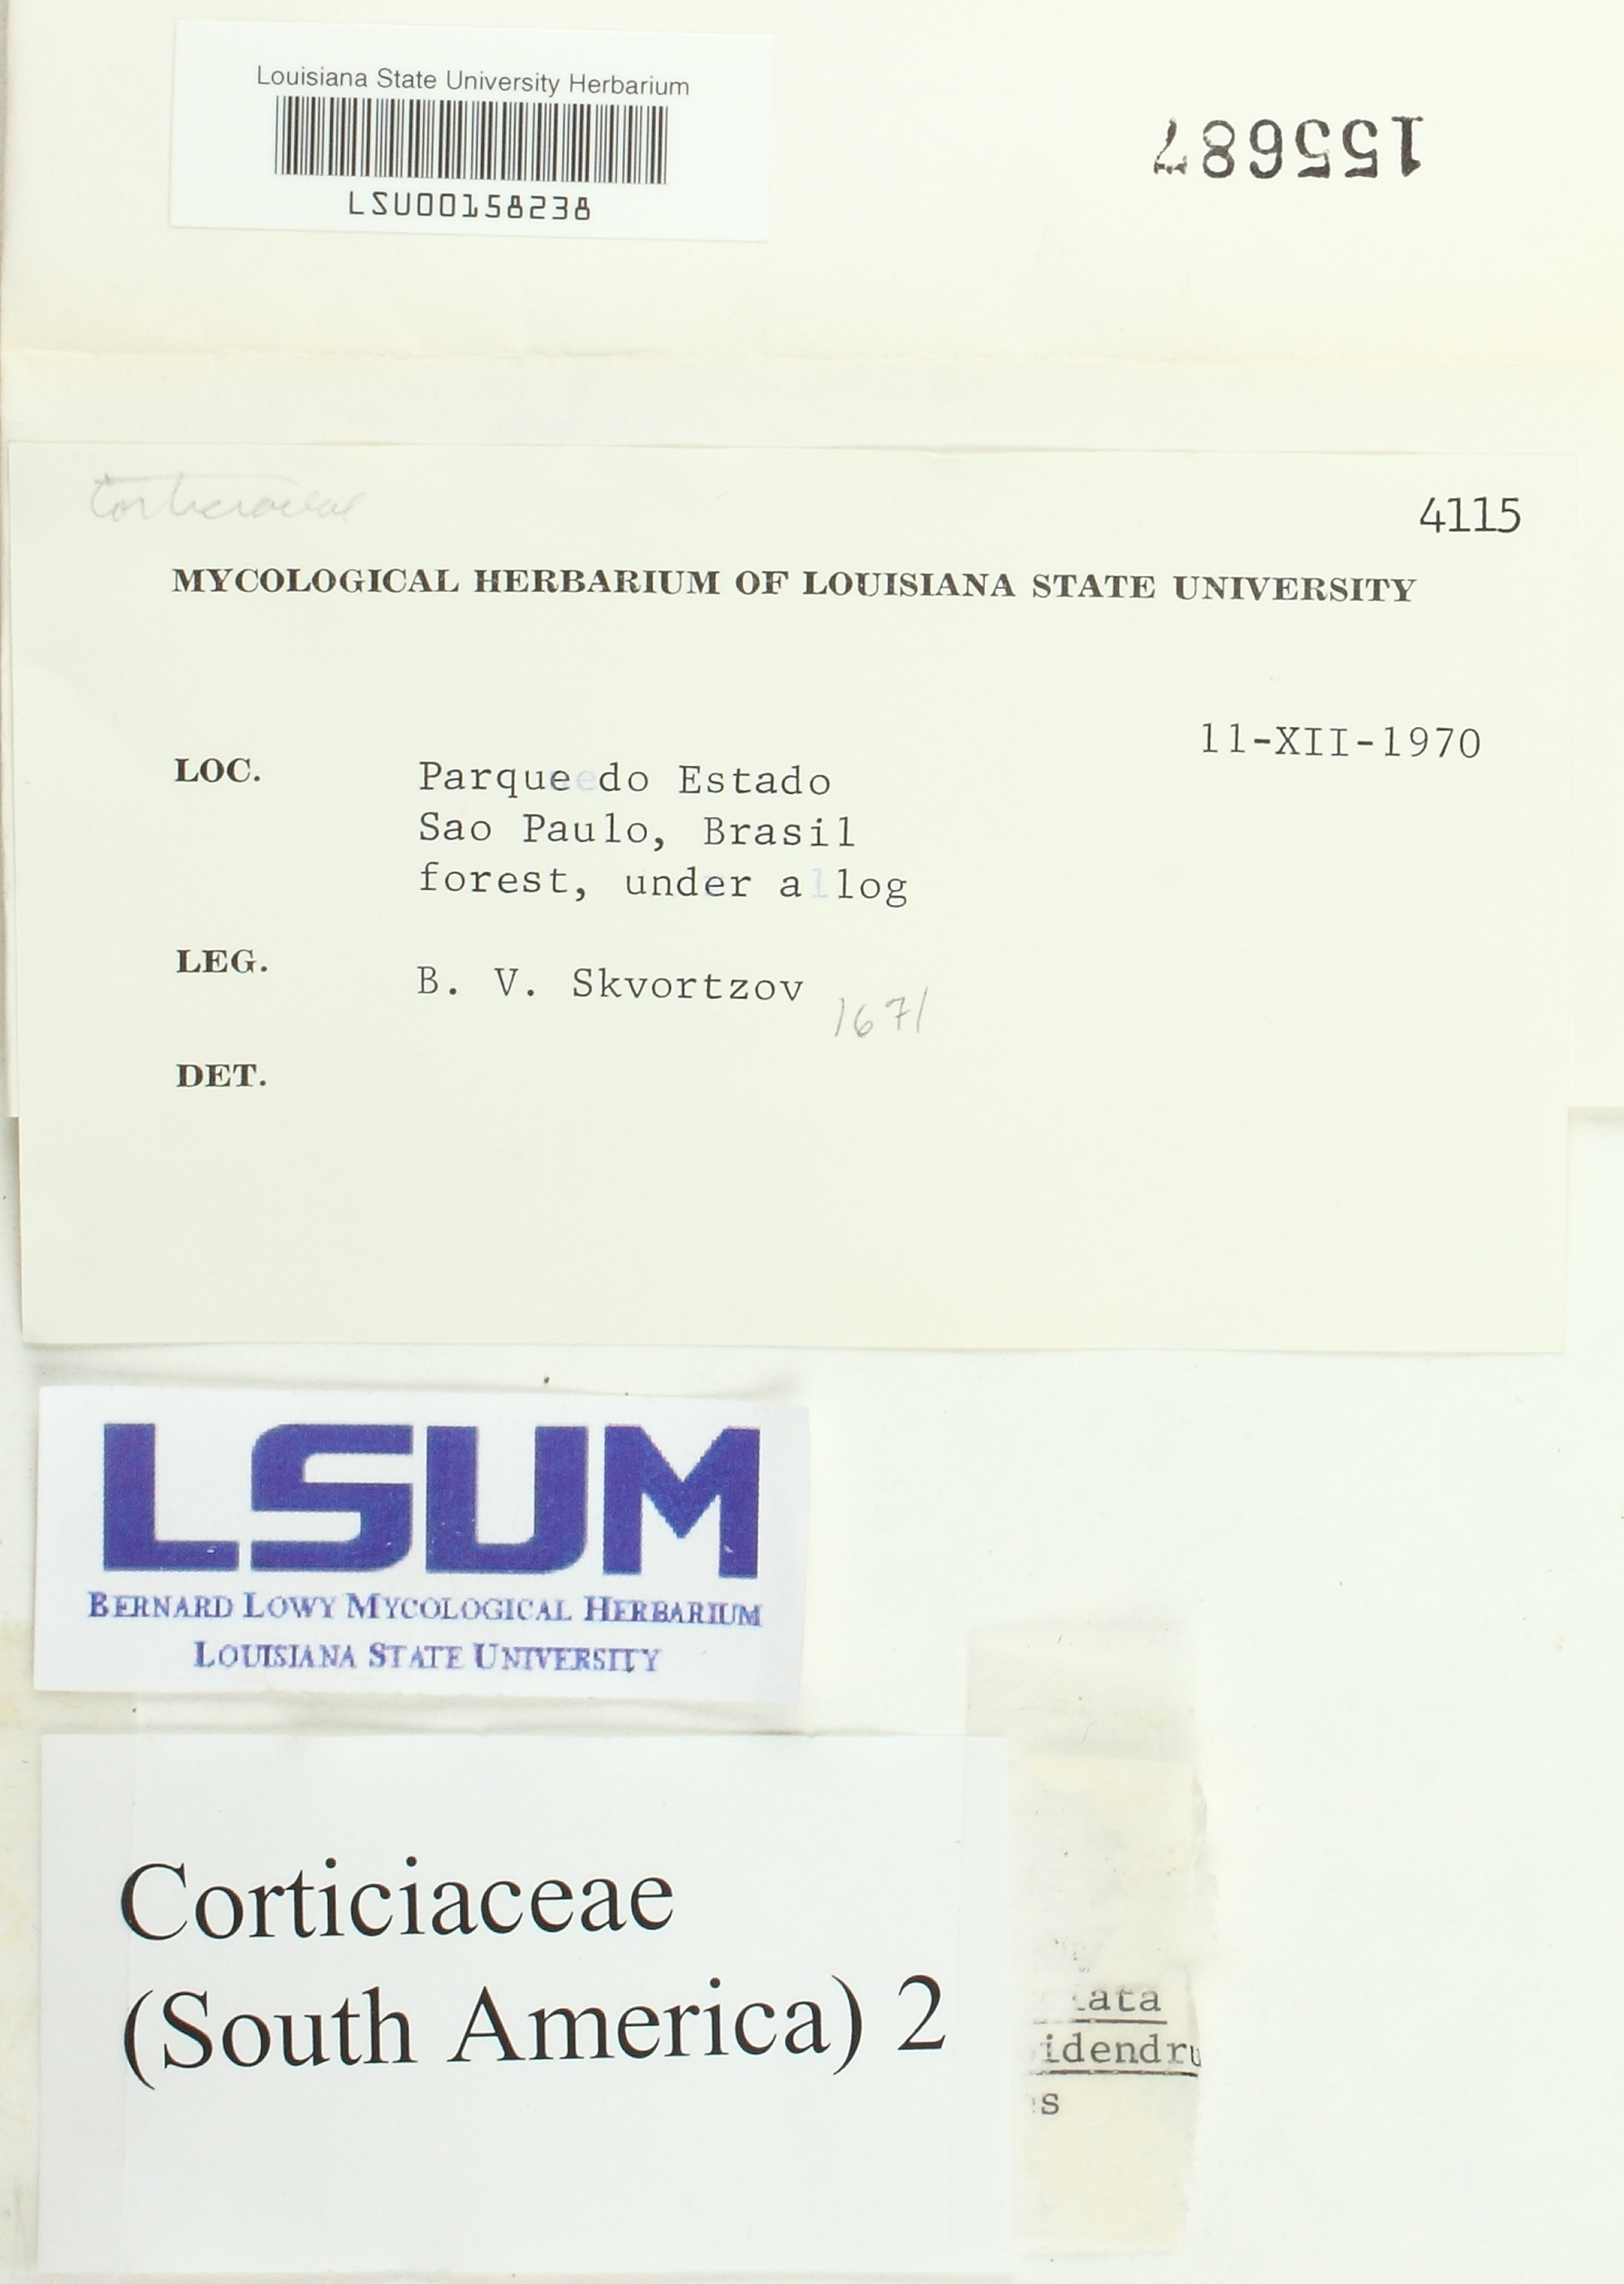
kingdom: Fungi
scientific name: Fungi
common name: Fungi
